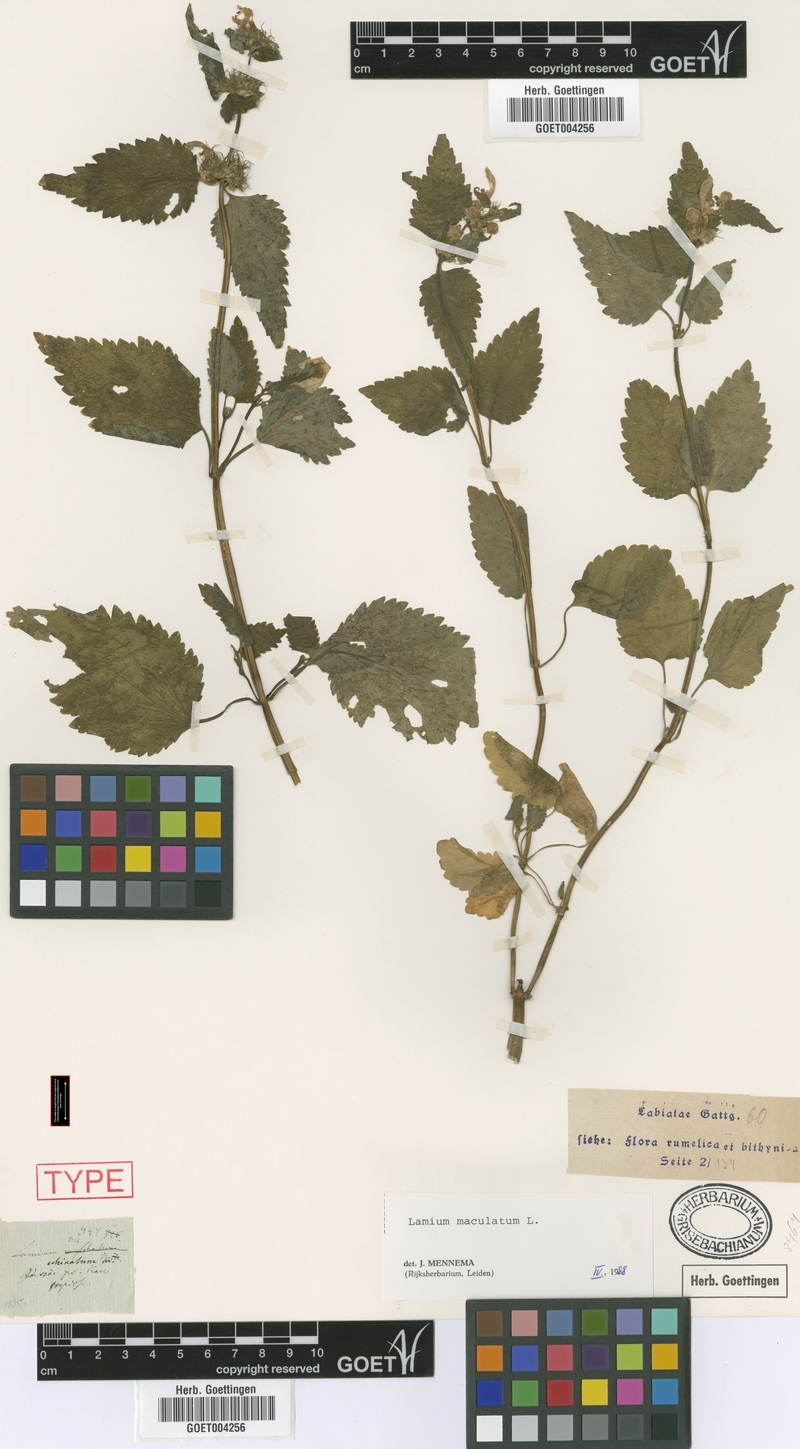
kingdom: Plantae
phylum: Tracheophyta
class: Magnoliopsida
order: Lamiales
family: Lamiaceae
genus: Lamium
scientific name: Lamium maculatum
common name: Spotted dead-nettle
